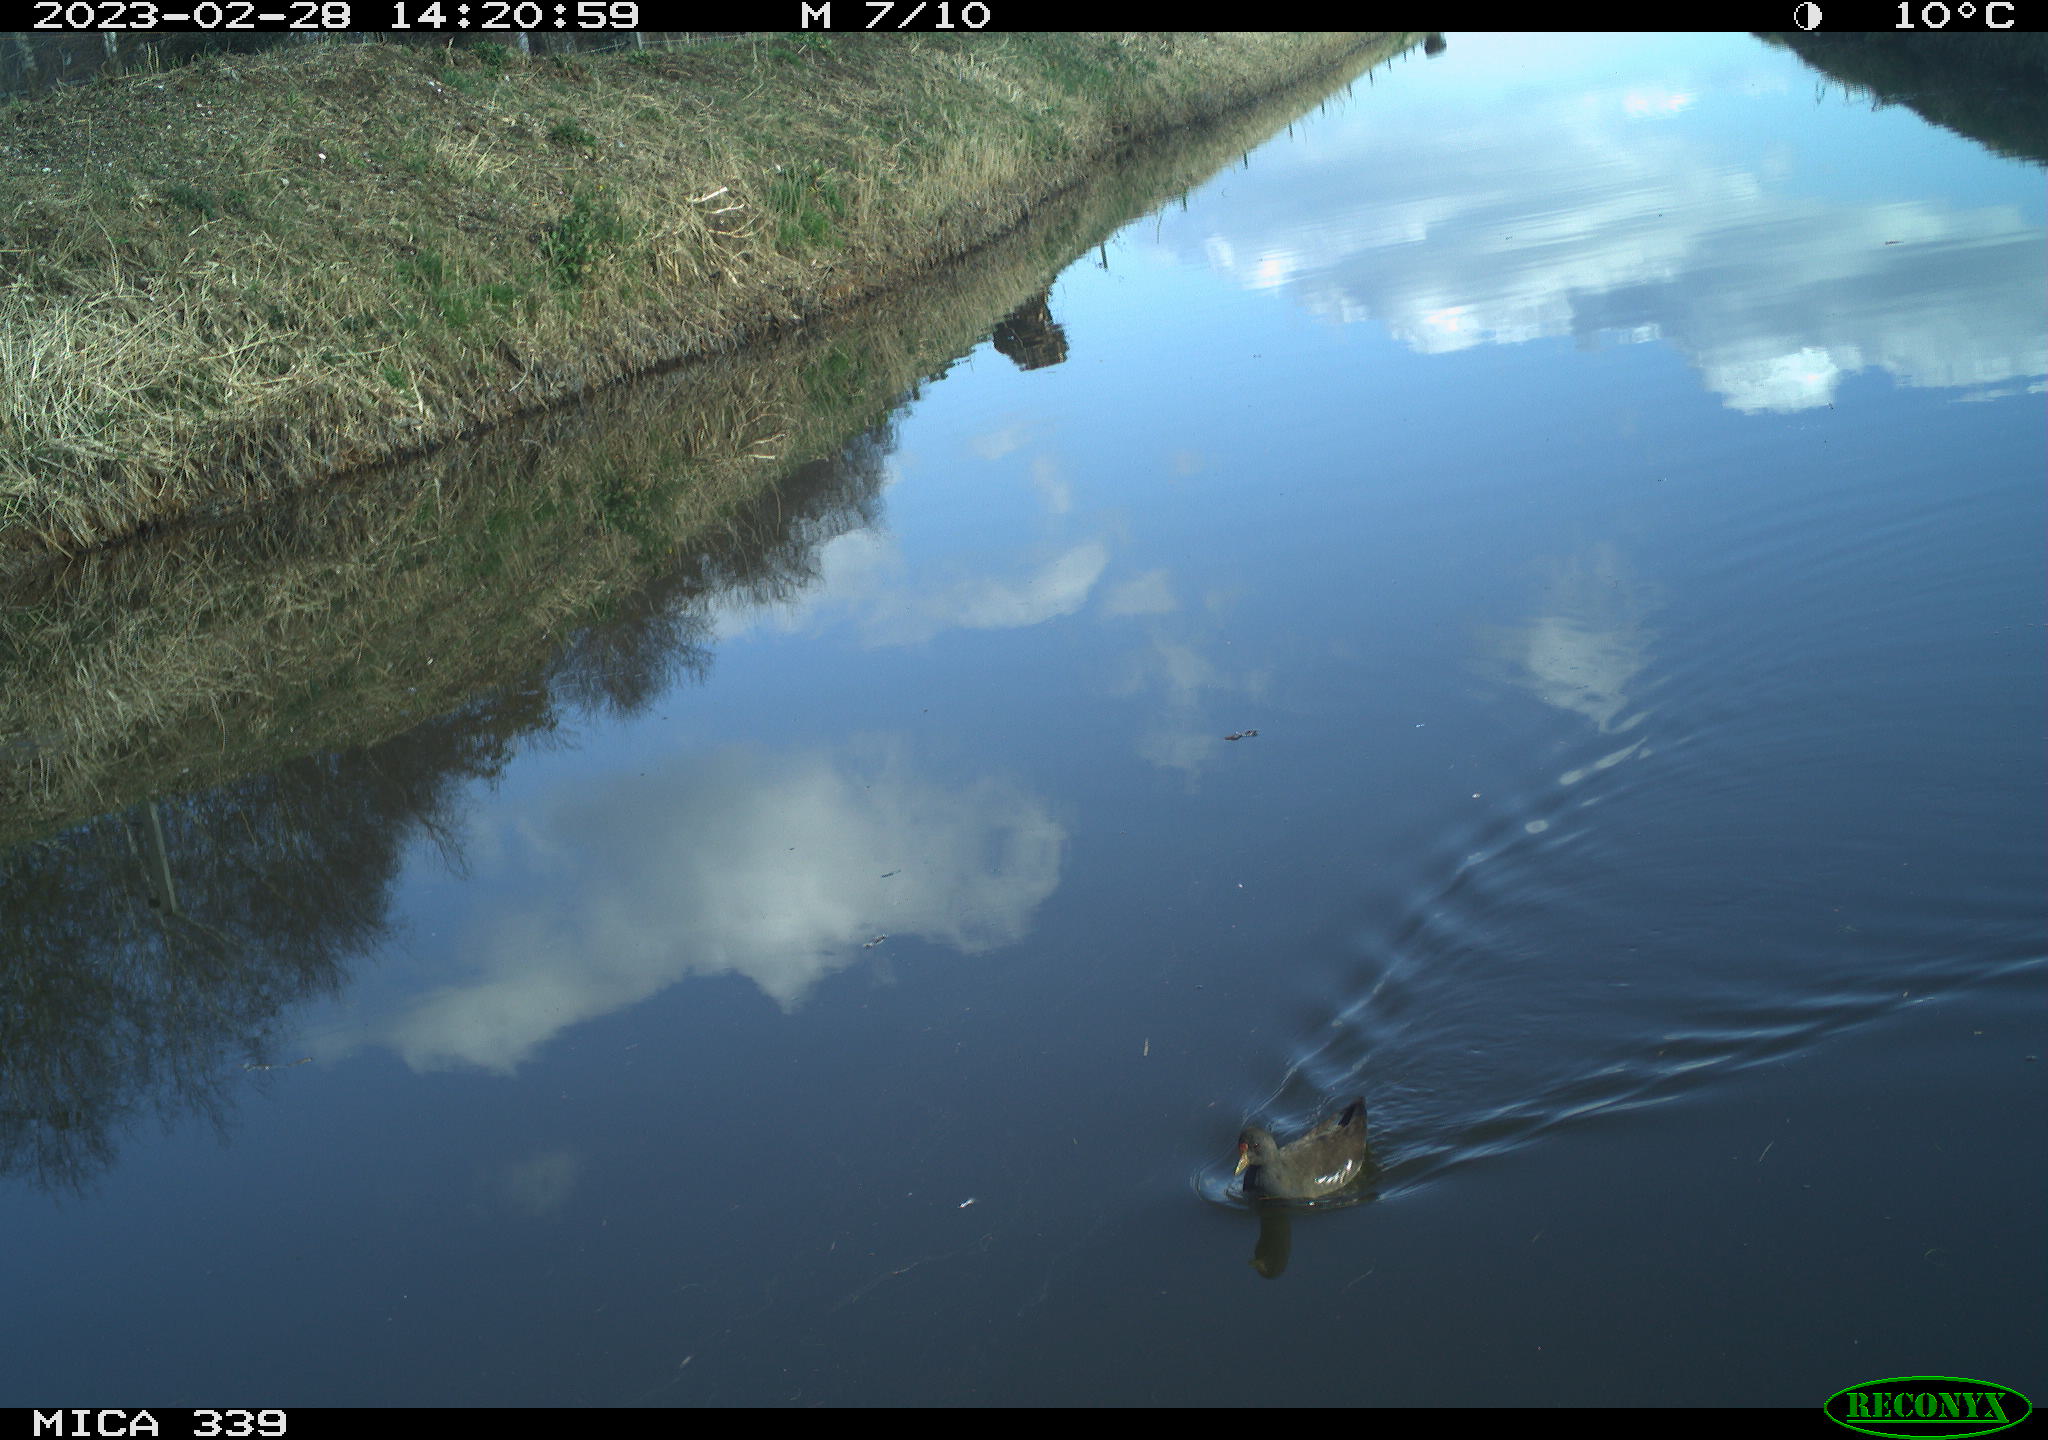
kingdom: Animalia
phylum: Chordata
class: Aves
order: Gruiformes
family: Rallidae
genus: Gallinula
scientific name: Gallinula chloropus
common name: Common moorhen
